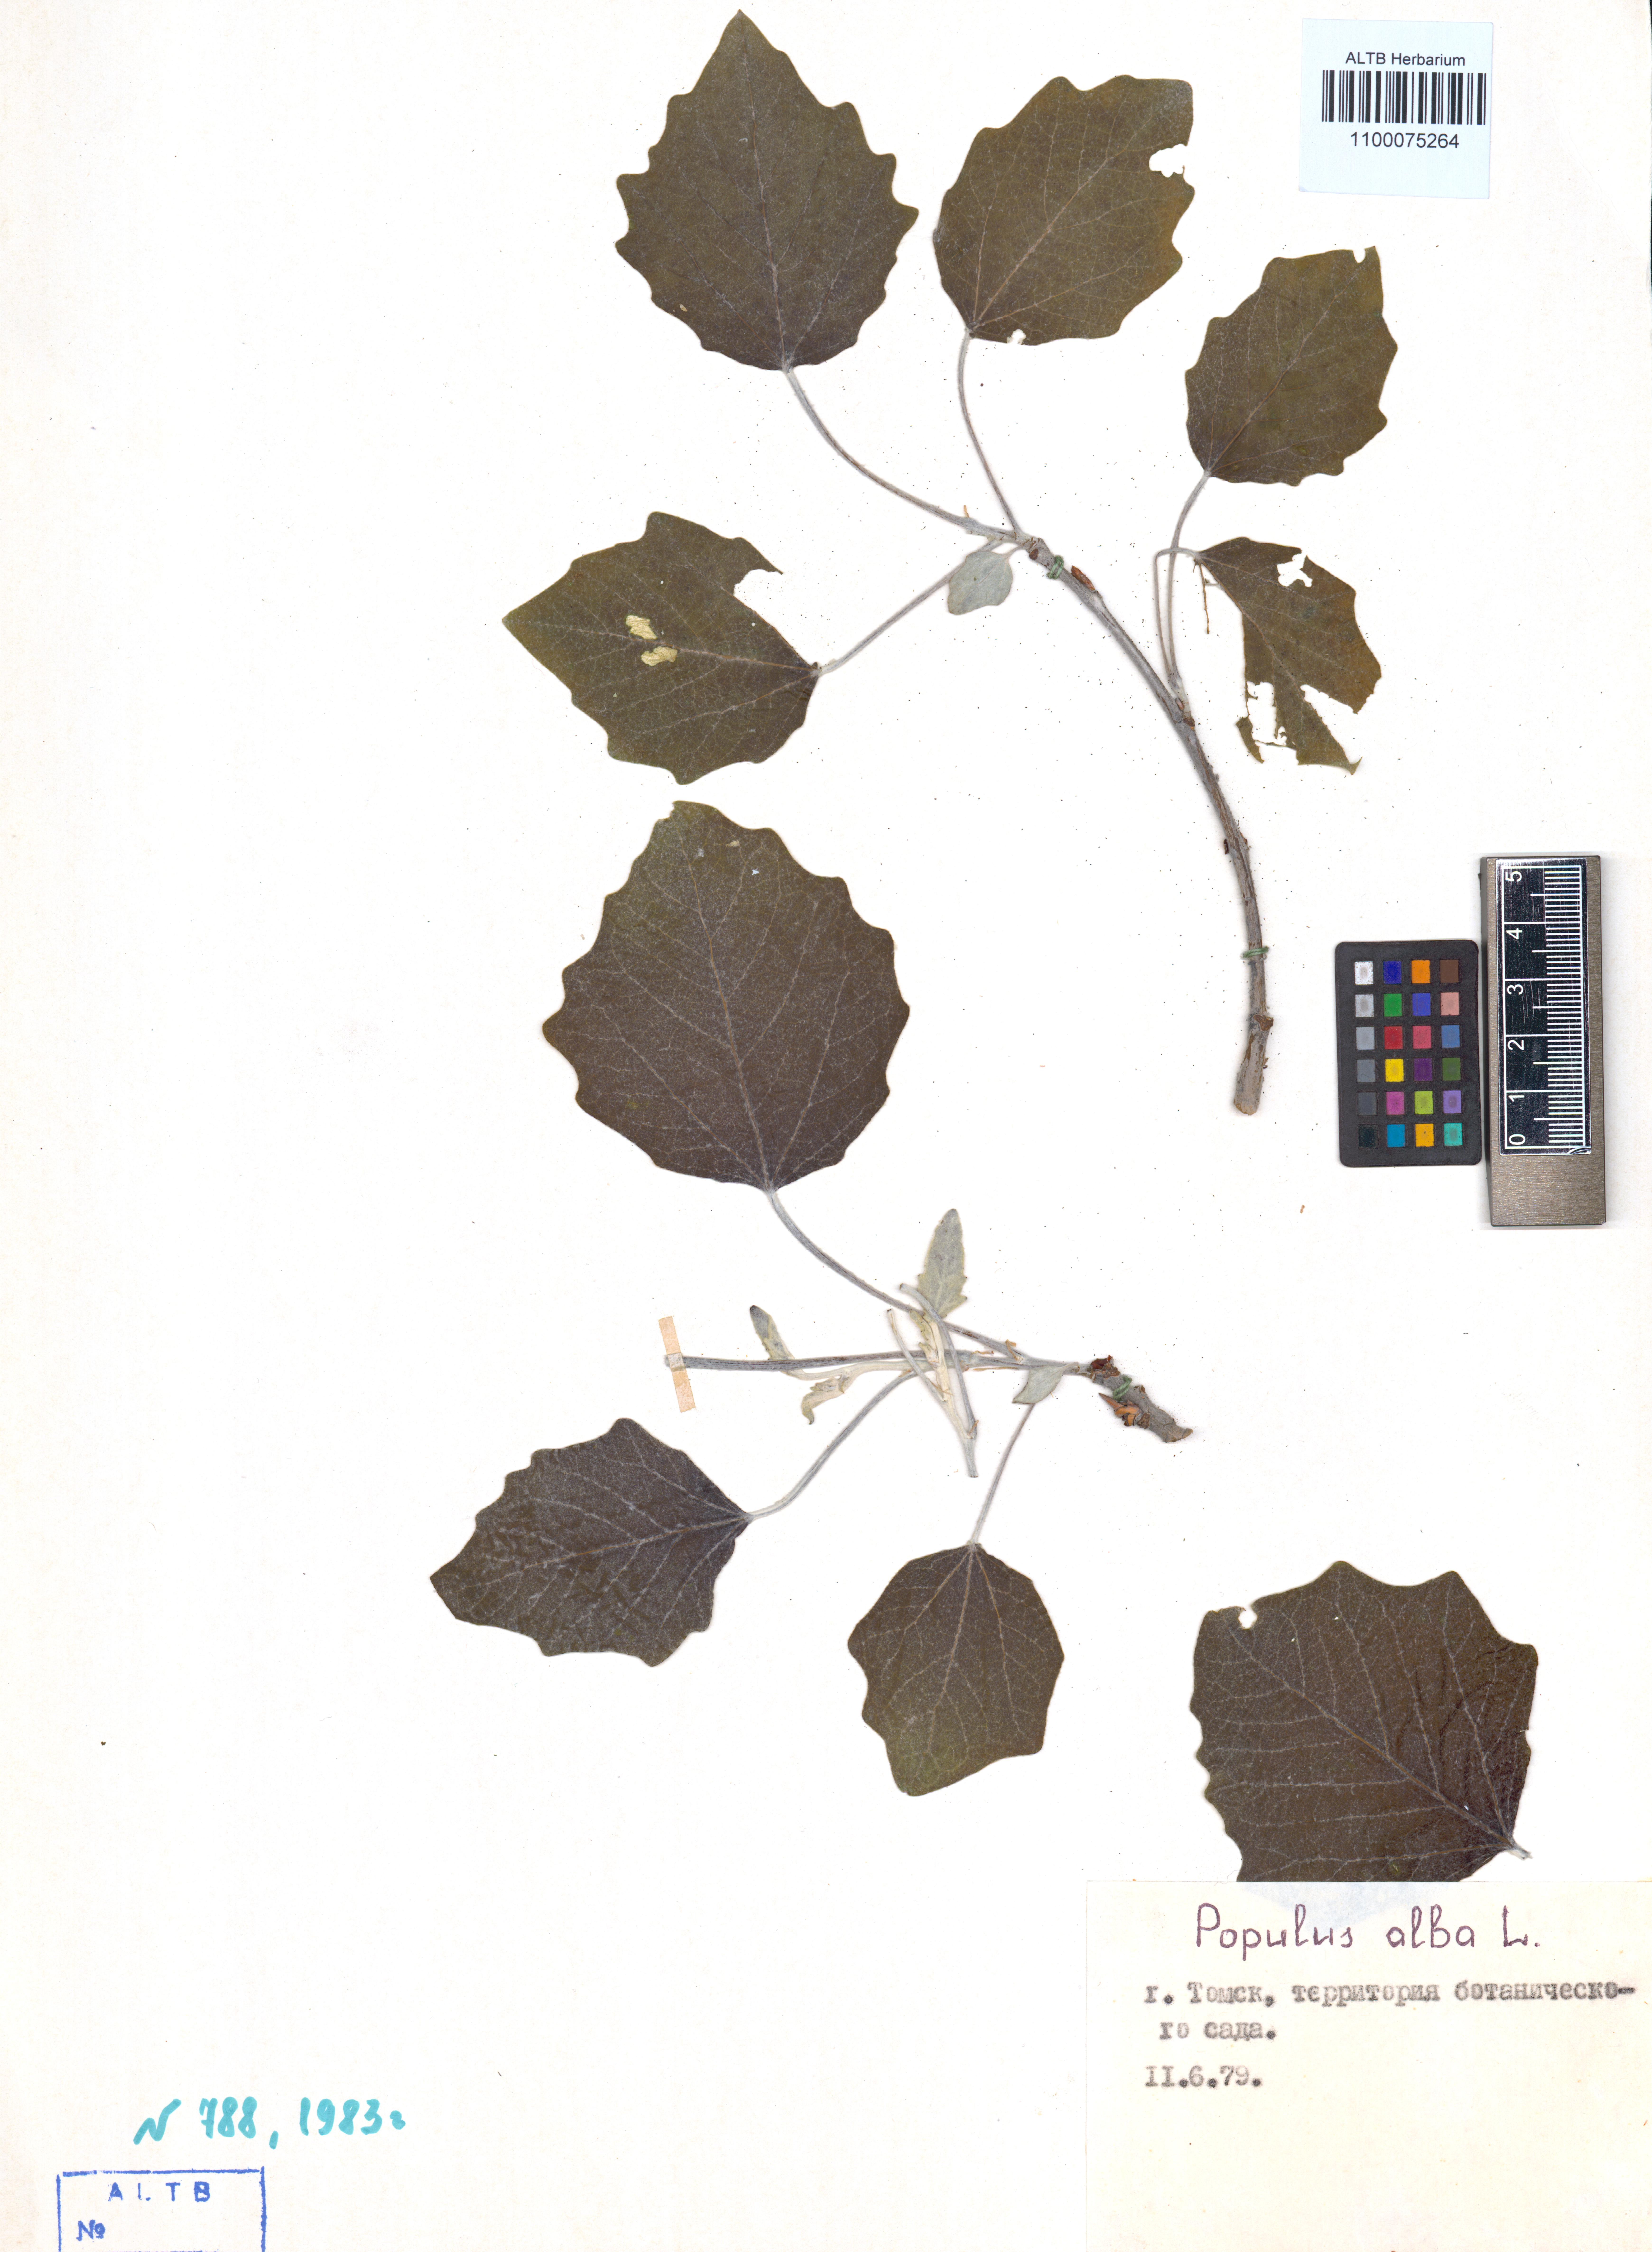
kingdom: Plantae
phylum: Tracheophyta
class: Magnoliopsida
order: Malpighiales
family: Salicaceae
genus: Populus
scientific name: Populus alba
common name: White poplar
